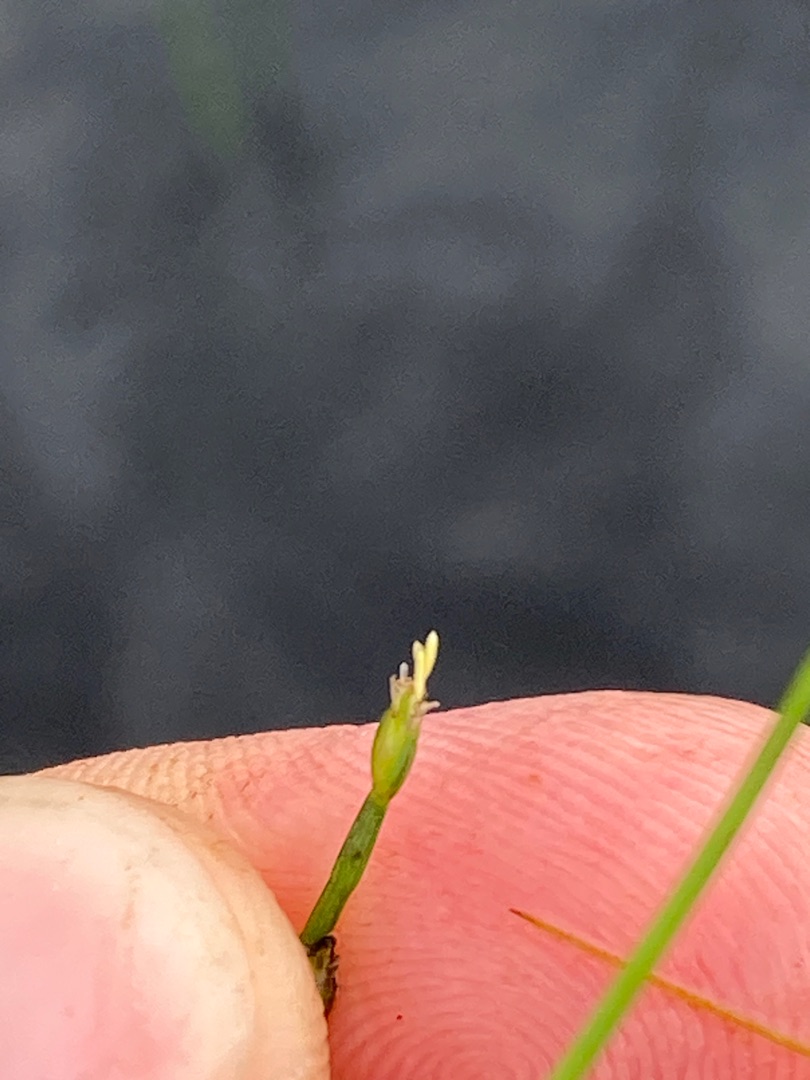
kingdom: Plantae
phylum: Tracheophyta
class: Liliopsida
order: Poales
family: Cyperaceae
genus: Isolepis
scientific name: Isolepis fluitans
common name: Flydende kogleaks
